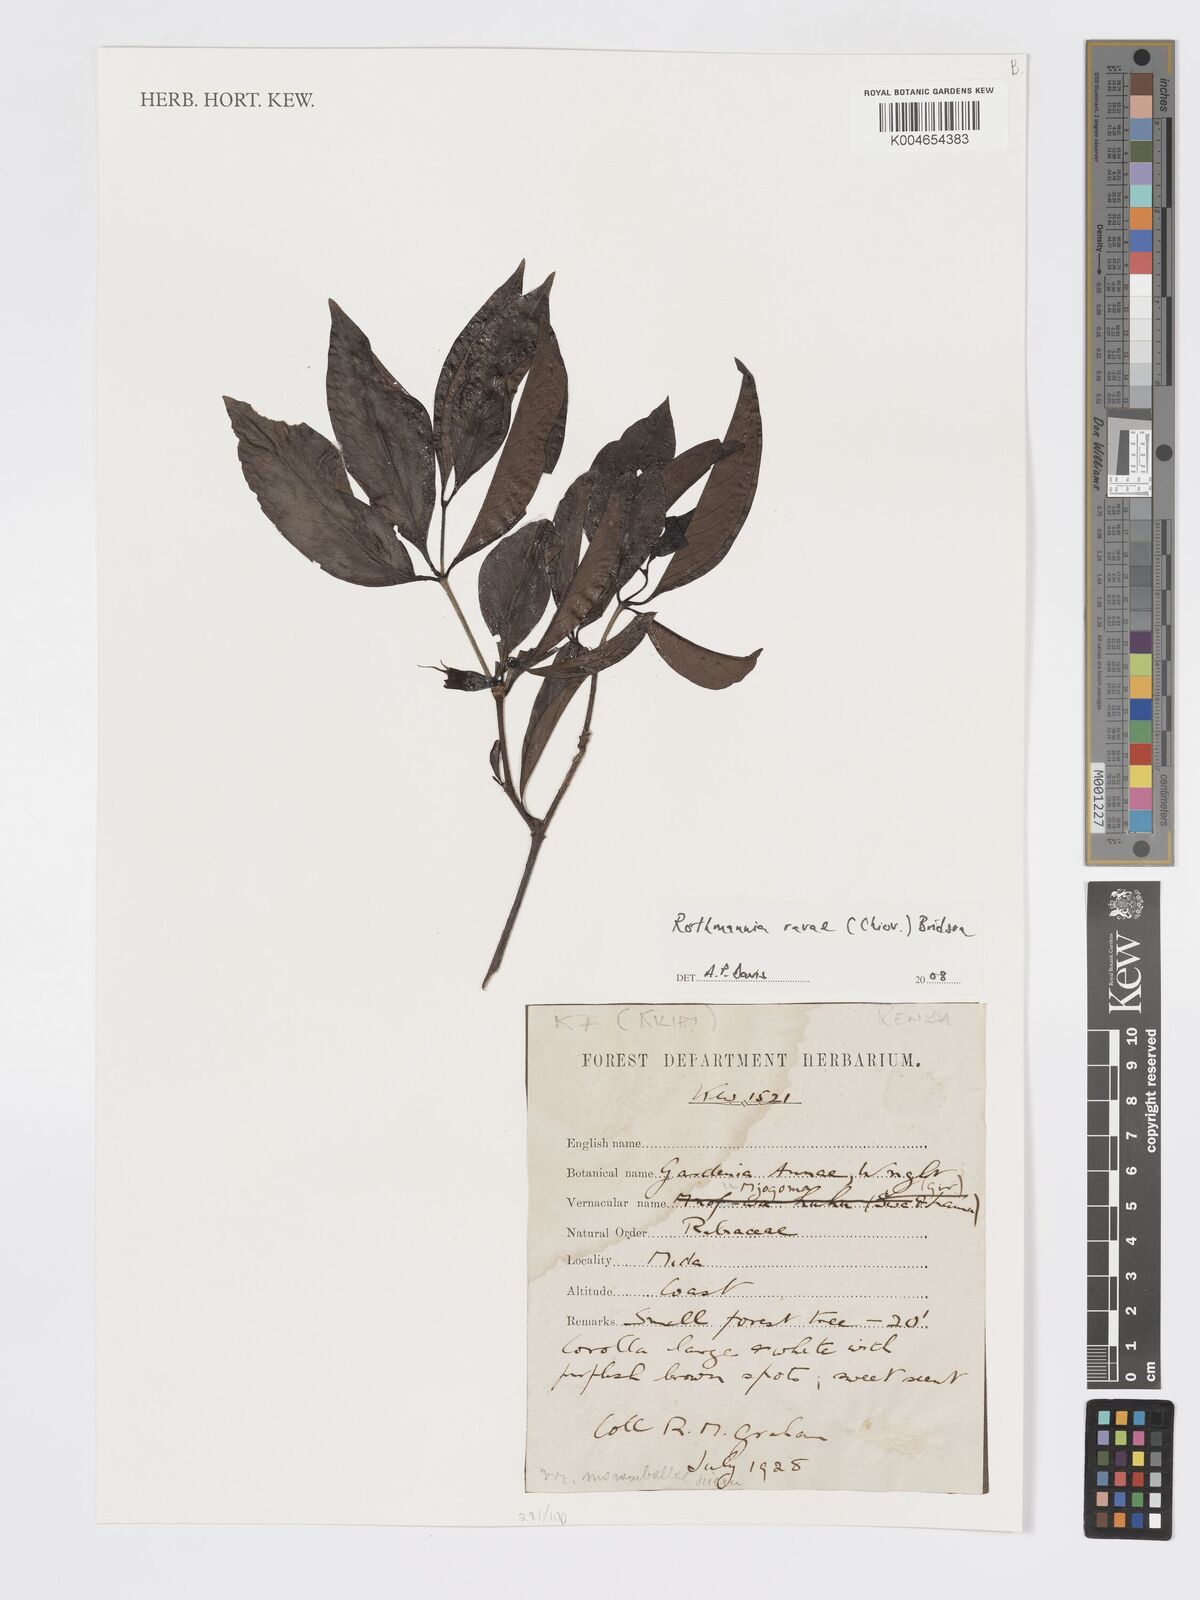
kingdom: Plantae
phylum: Tracheophyta
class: Magnoliopsida
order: Gentianales
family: Rubiaceae
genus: Rothmannia
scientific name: Rothmannia fischeri
